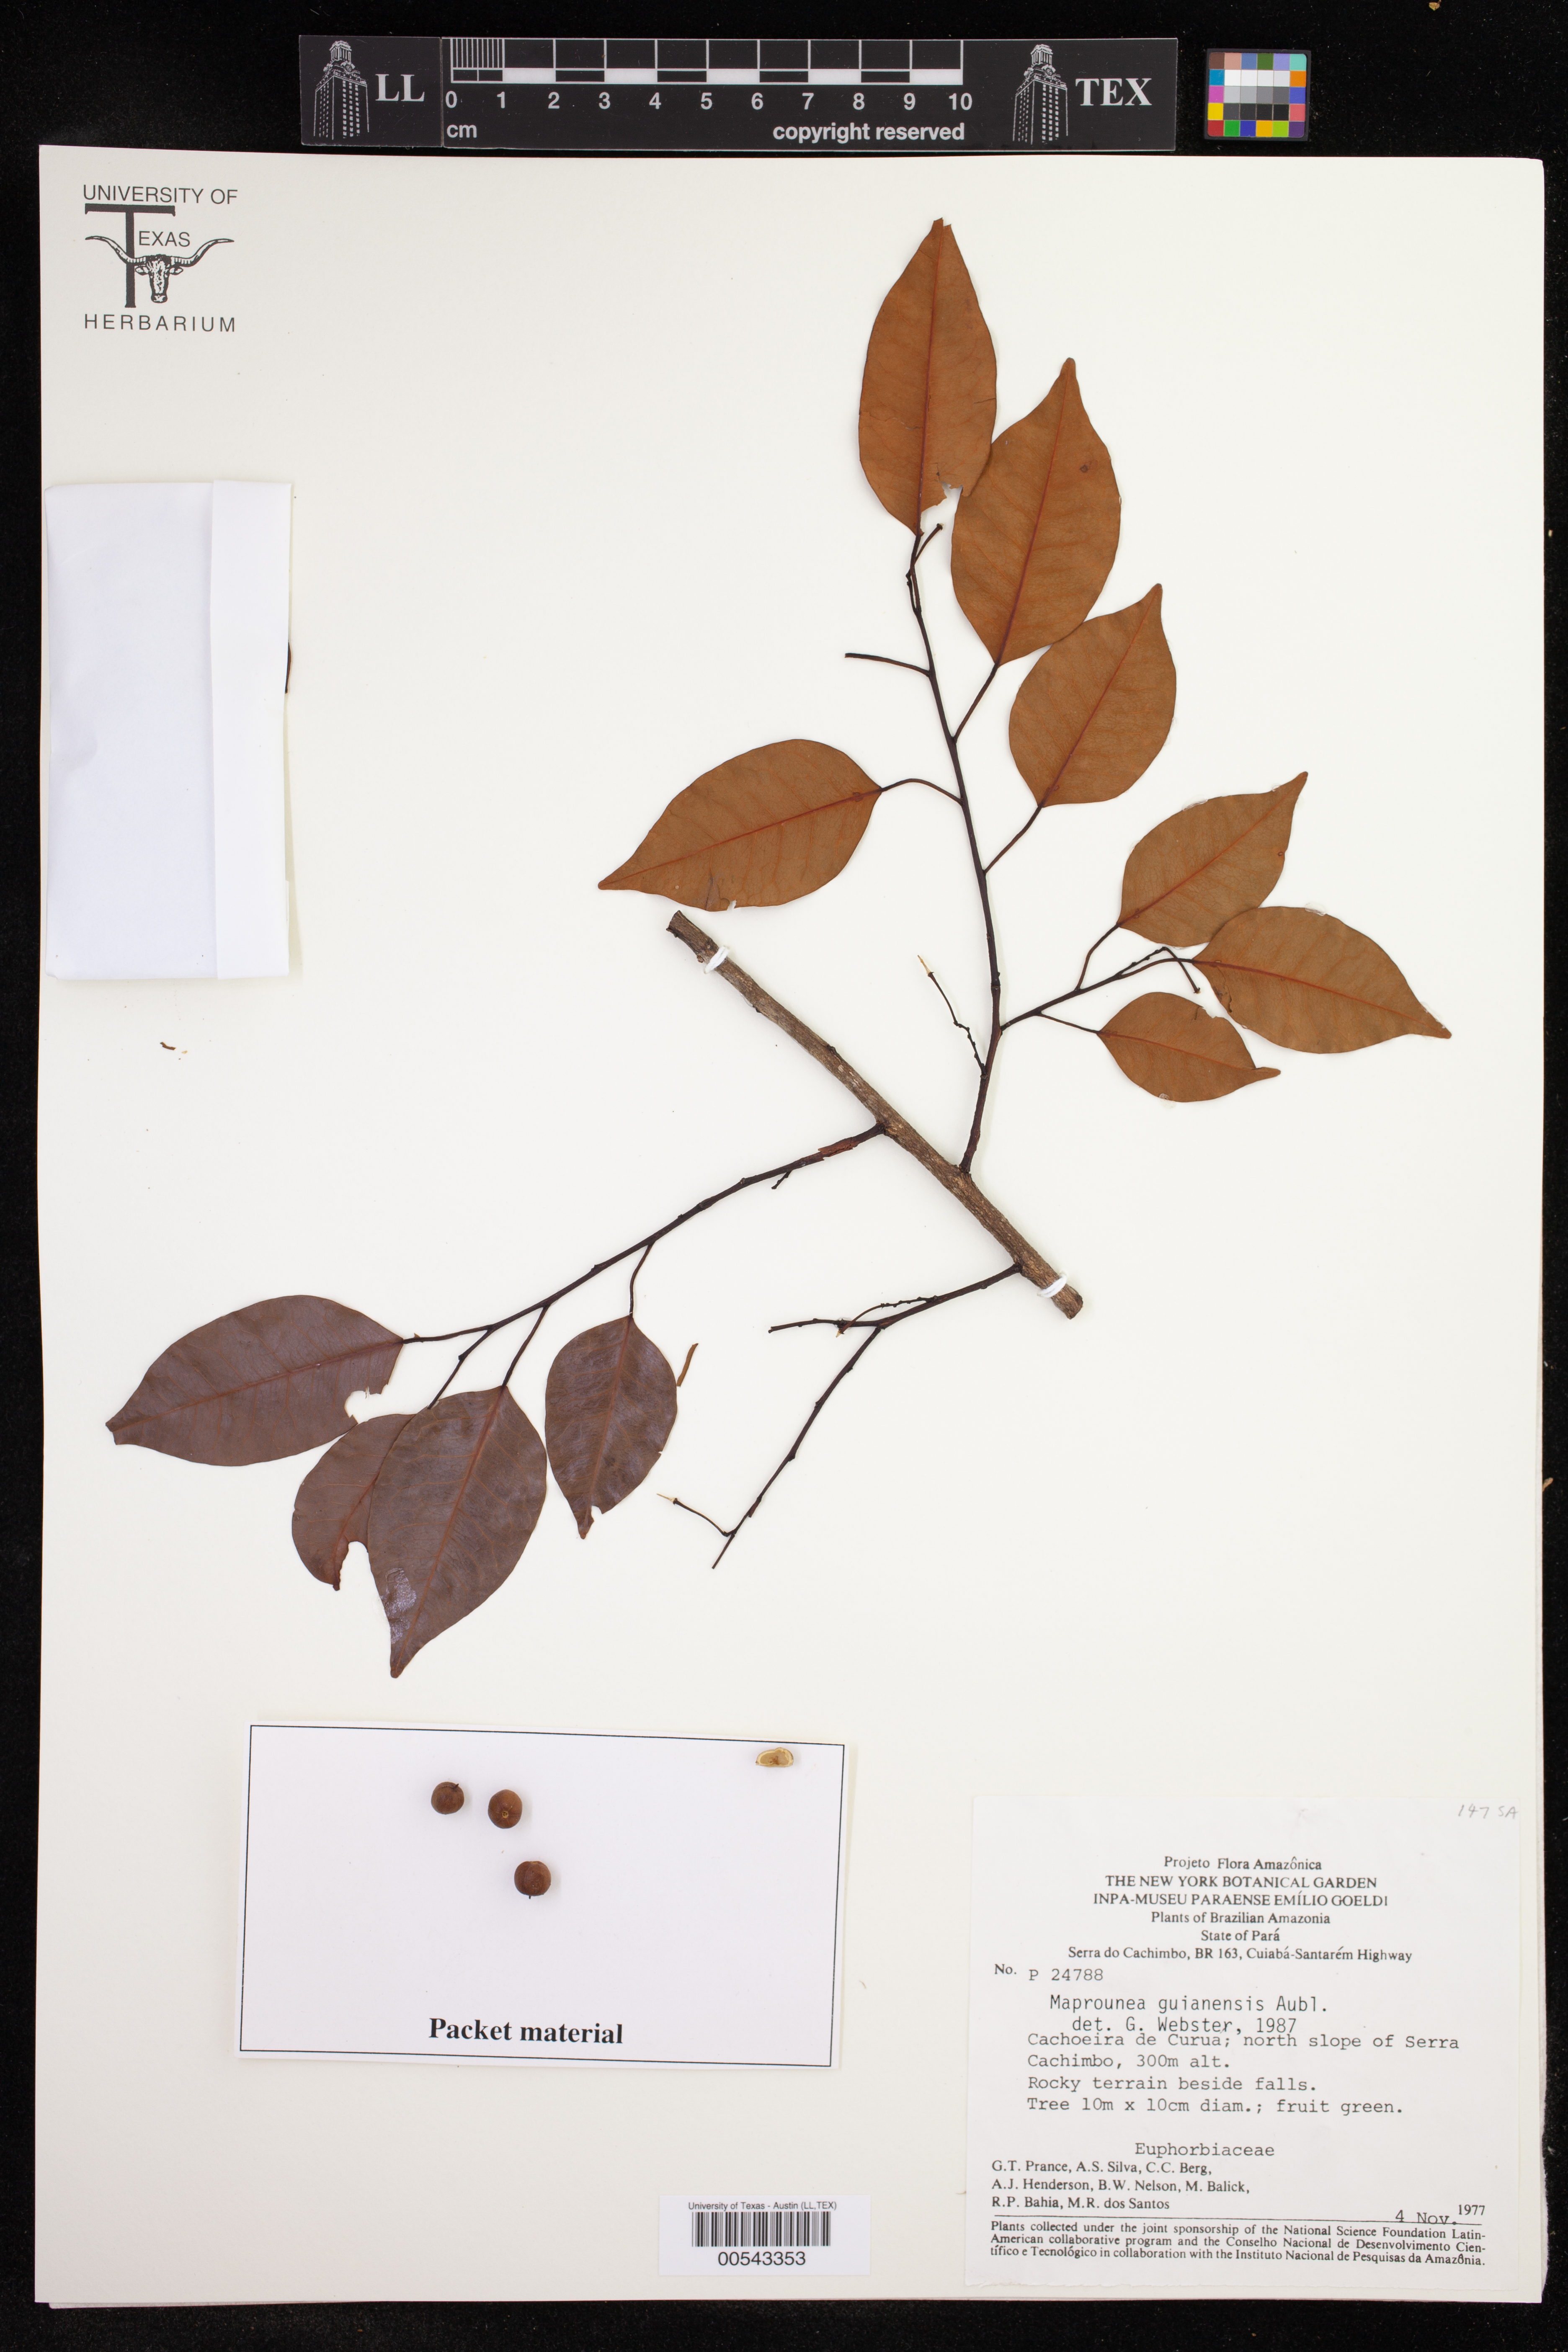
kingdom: Plantae
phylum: Tracheophyta
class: Magnoliopsida
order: Malpighiales
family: Euphorbiaceae
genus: Maprounea
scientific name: Maprounea guianensis
